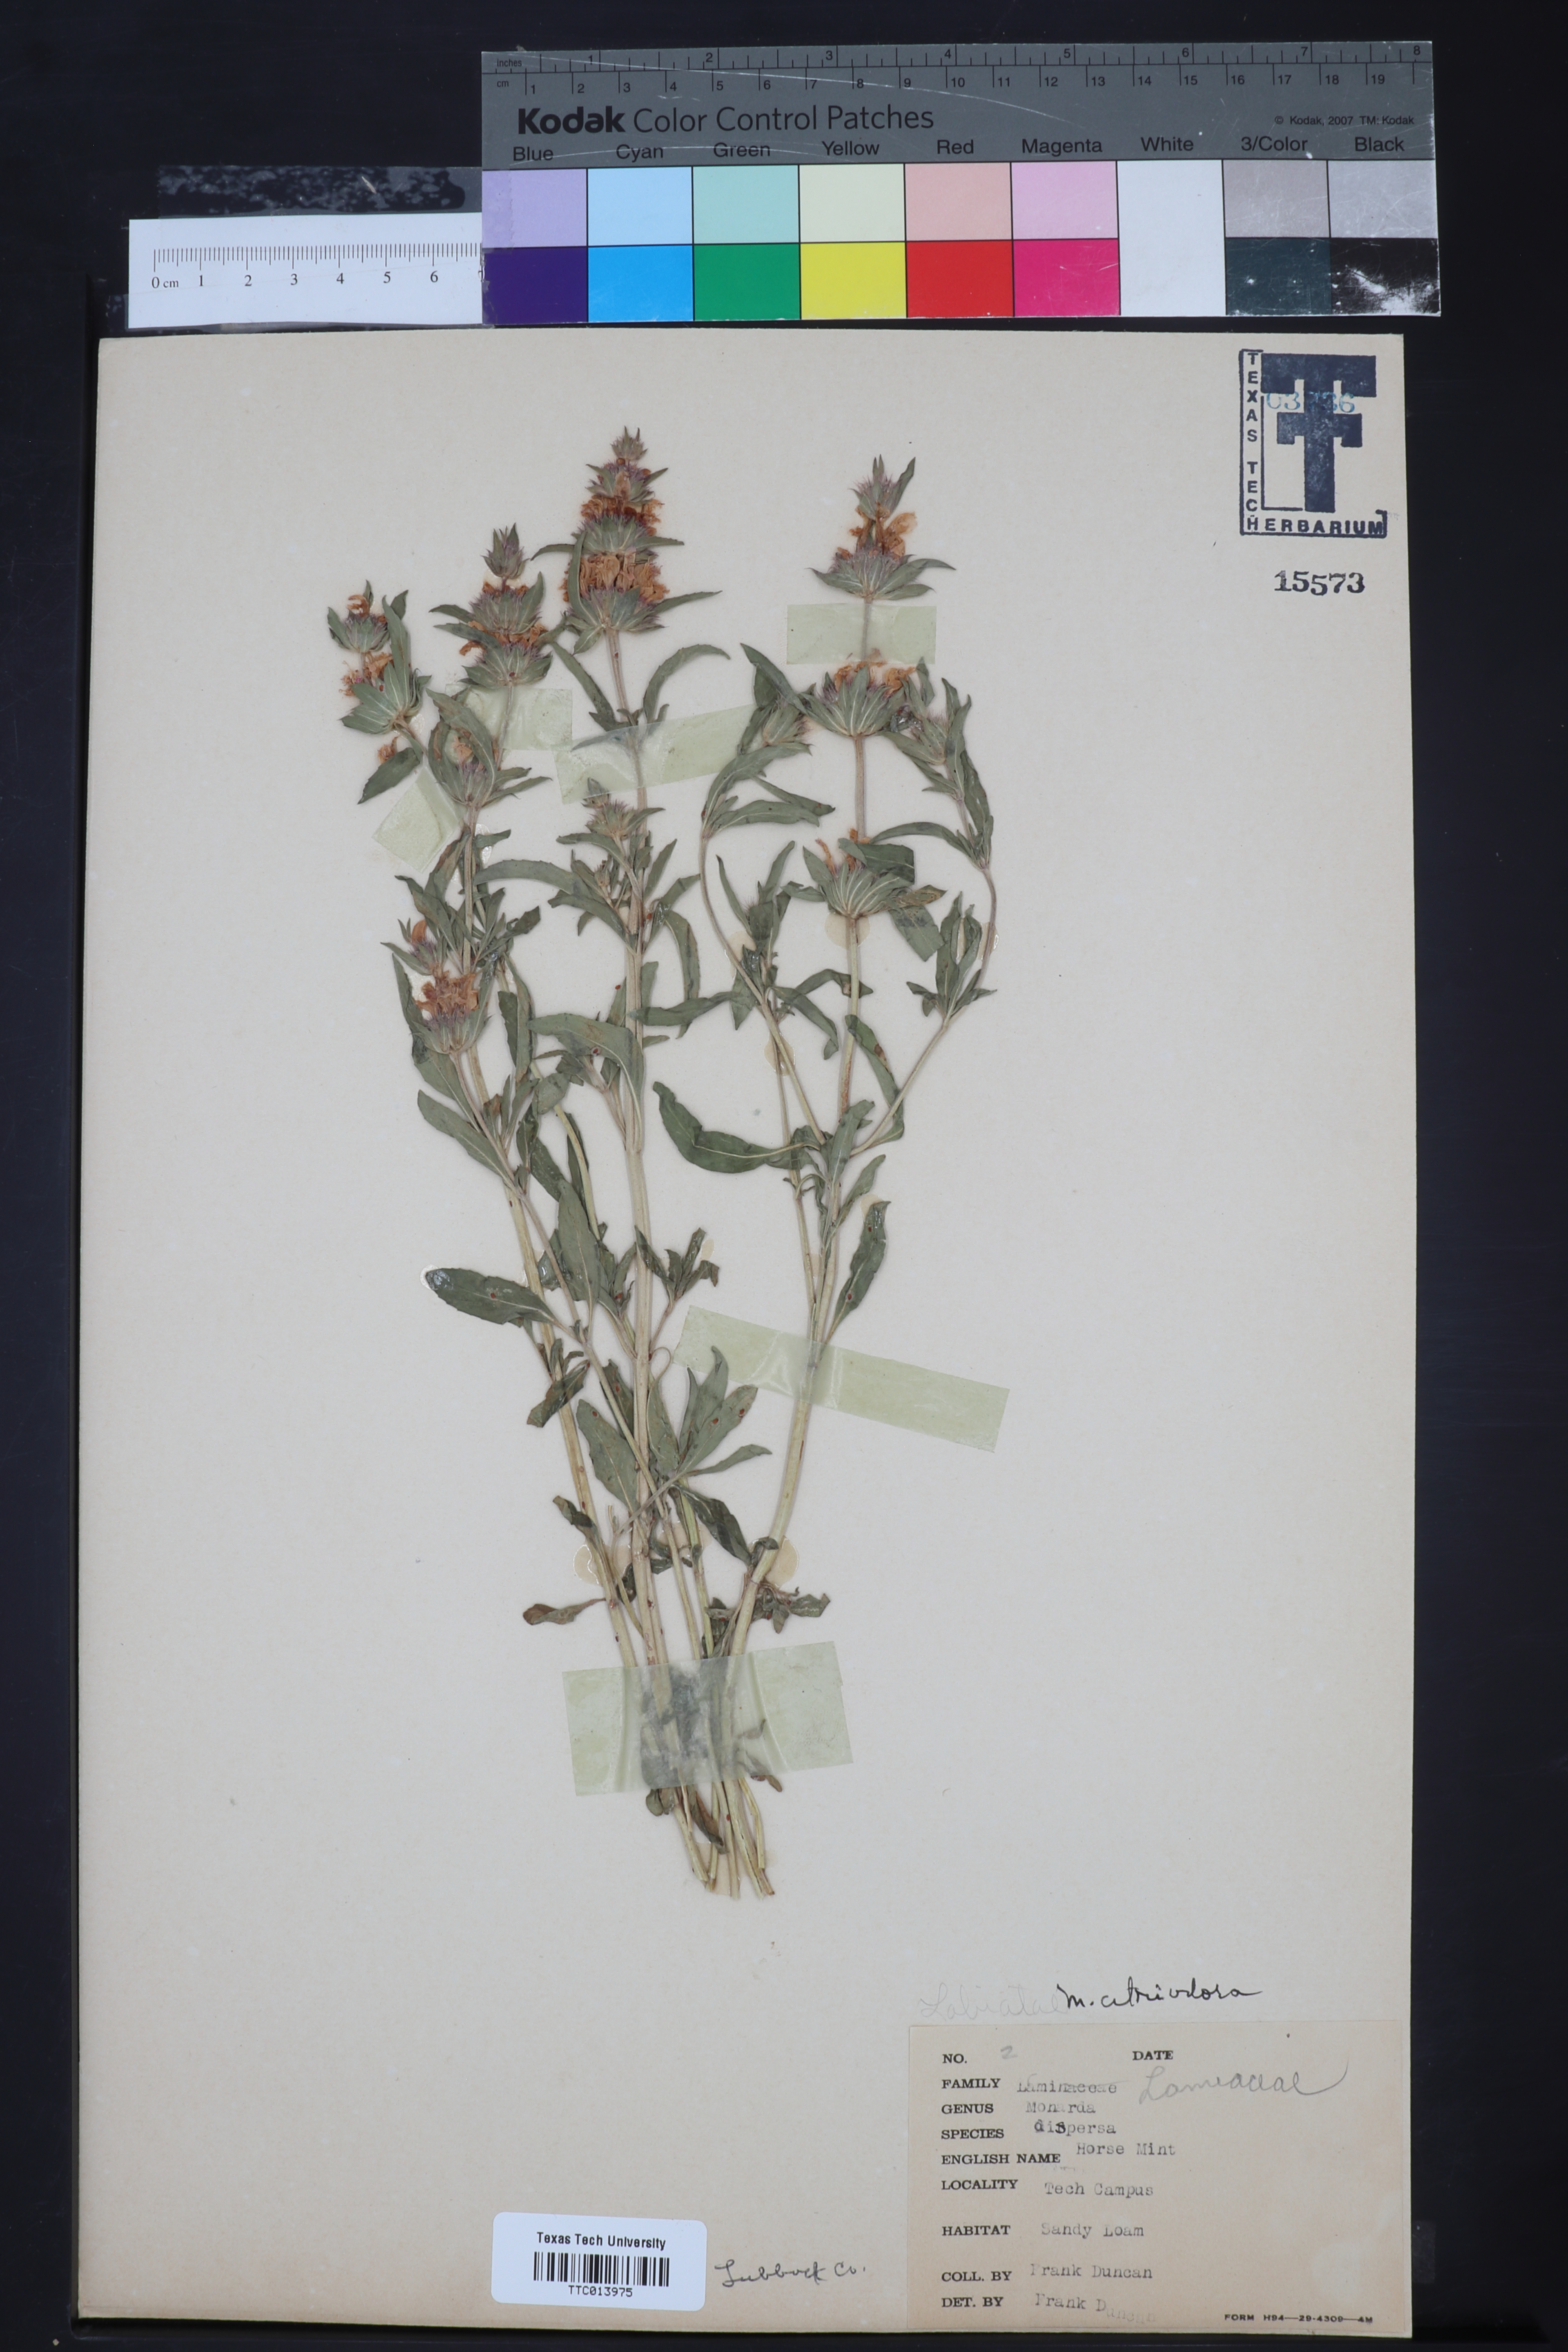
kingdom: Plantae
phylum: Tracheophyta
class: Magnoliopsida
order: Lamiales
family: Lamiaceae
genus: Monarda
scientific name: Monarda citriodora
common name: Lemon beebalm
